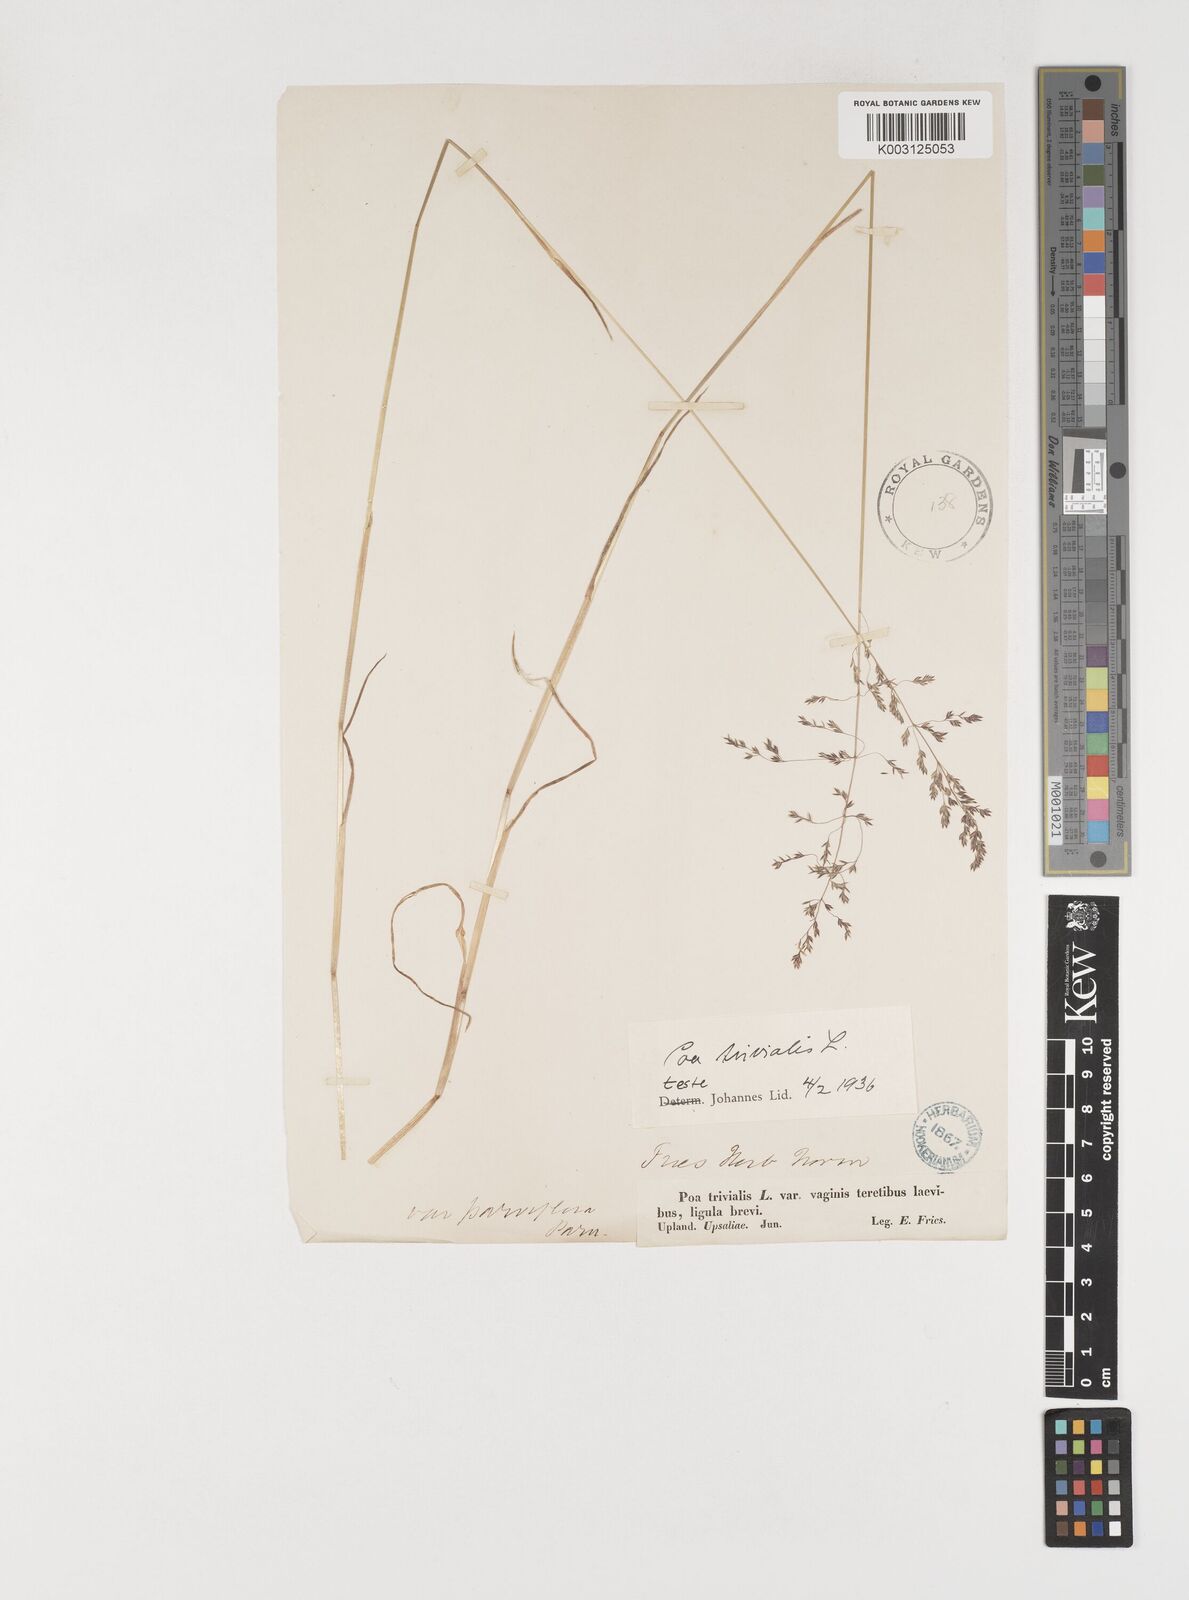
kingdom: Plantae
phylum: Tracheophyta
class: Liliopsida
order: Poales
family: Poaceae
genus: Poa
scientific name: Poa trivialis
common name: Rough bluegrass
